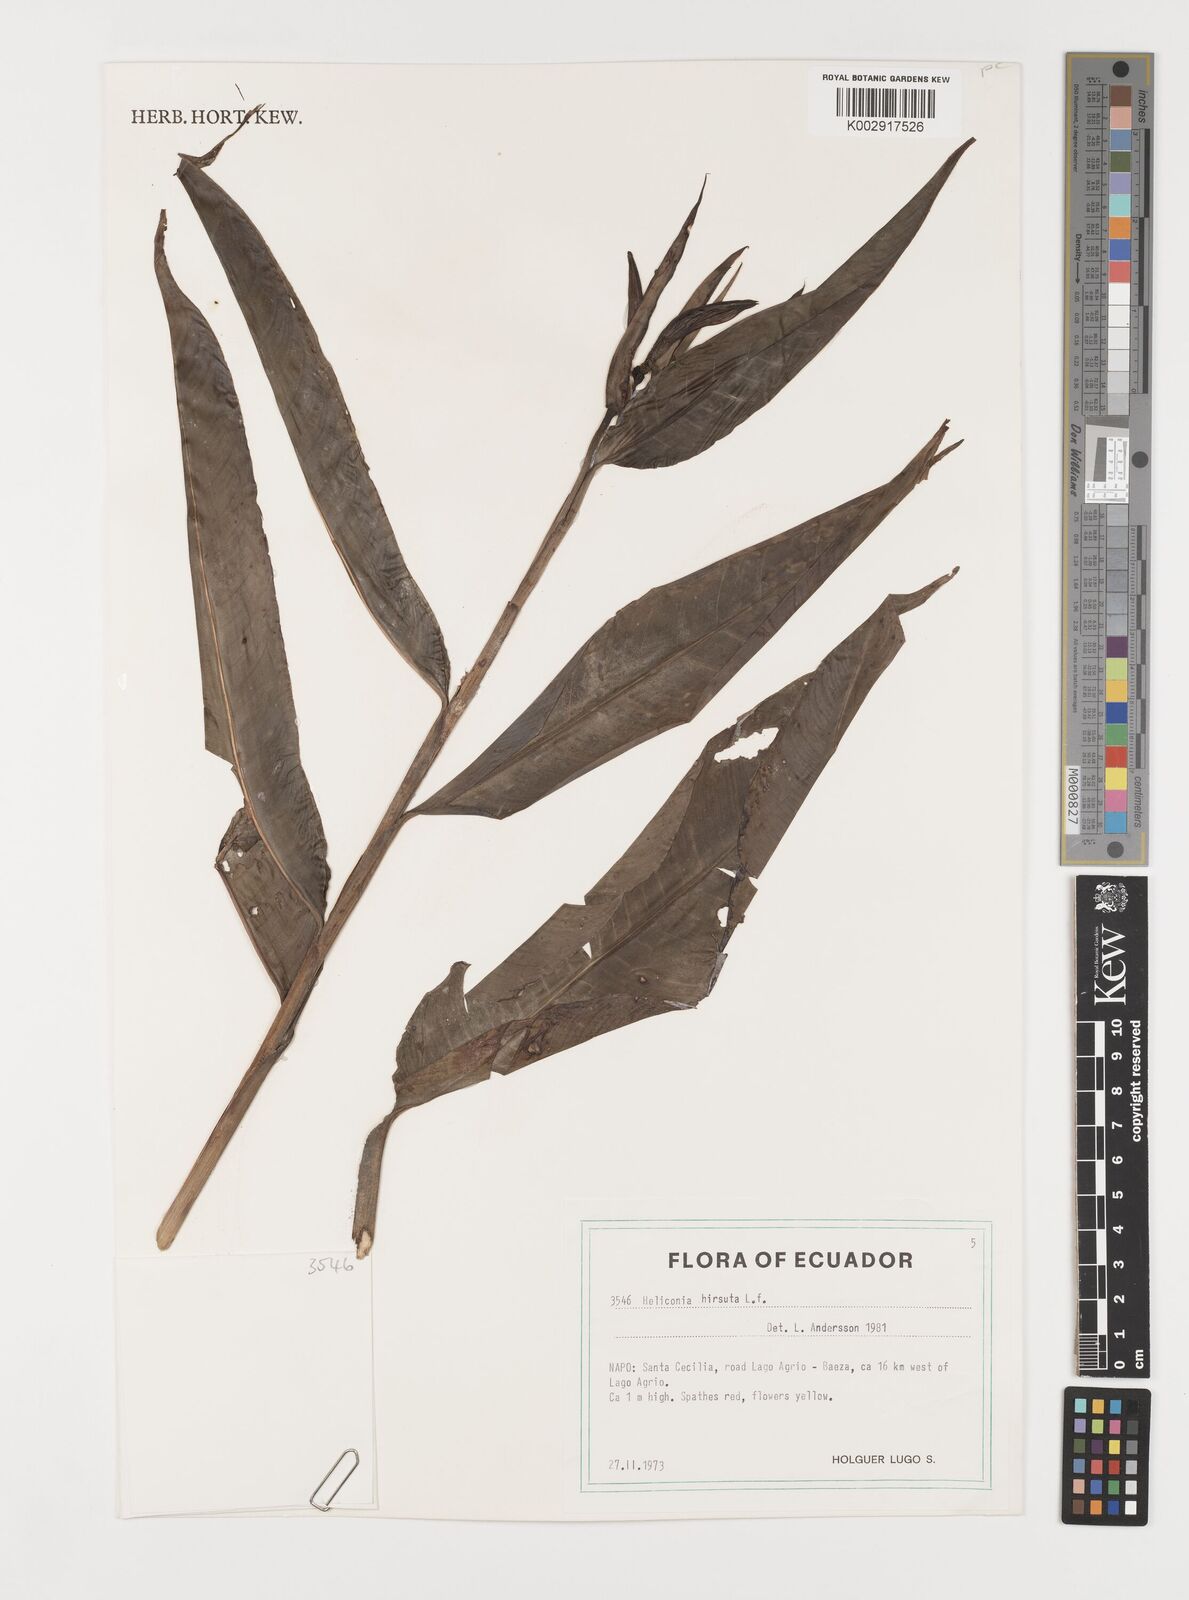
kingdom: Plantae
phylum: Tracheophyta
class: Liliopsida
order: Zingiberales
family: Heliconiaceae
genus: Heliconia
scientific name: Heliconia hirsuta
